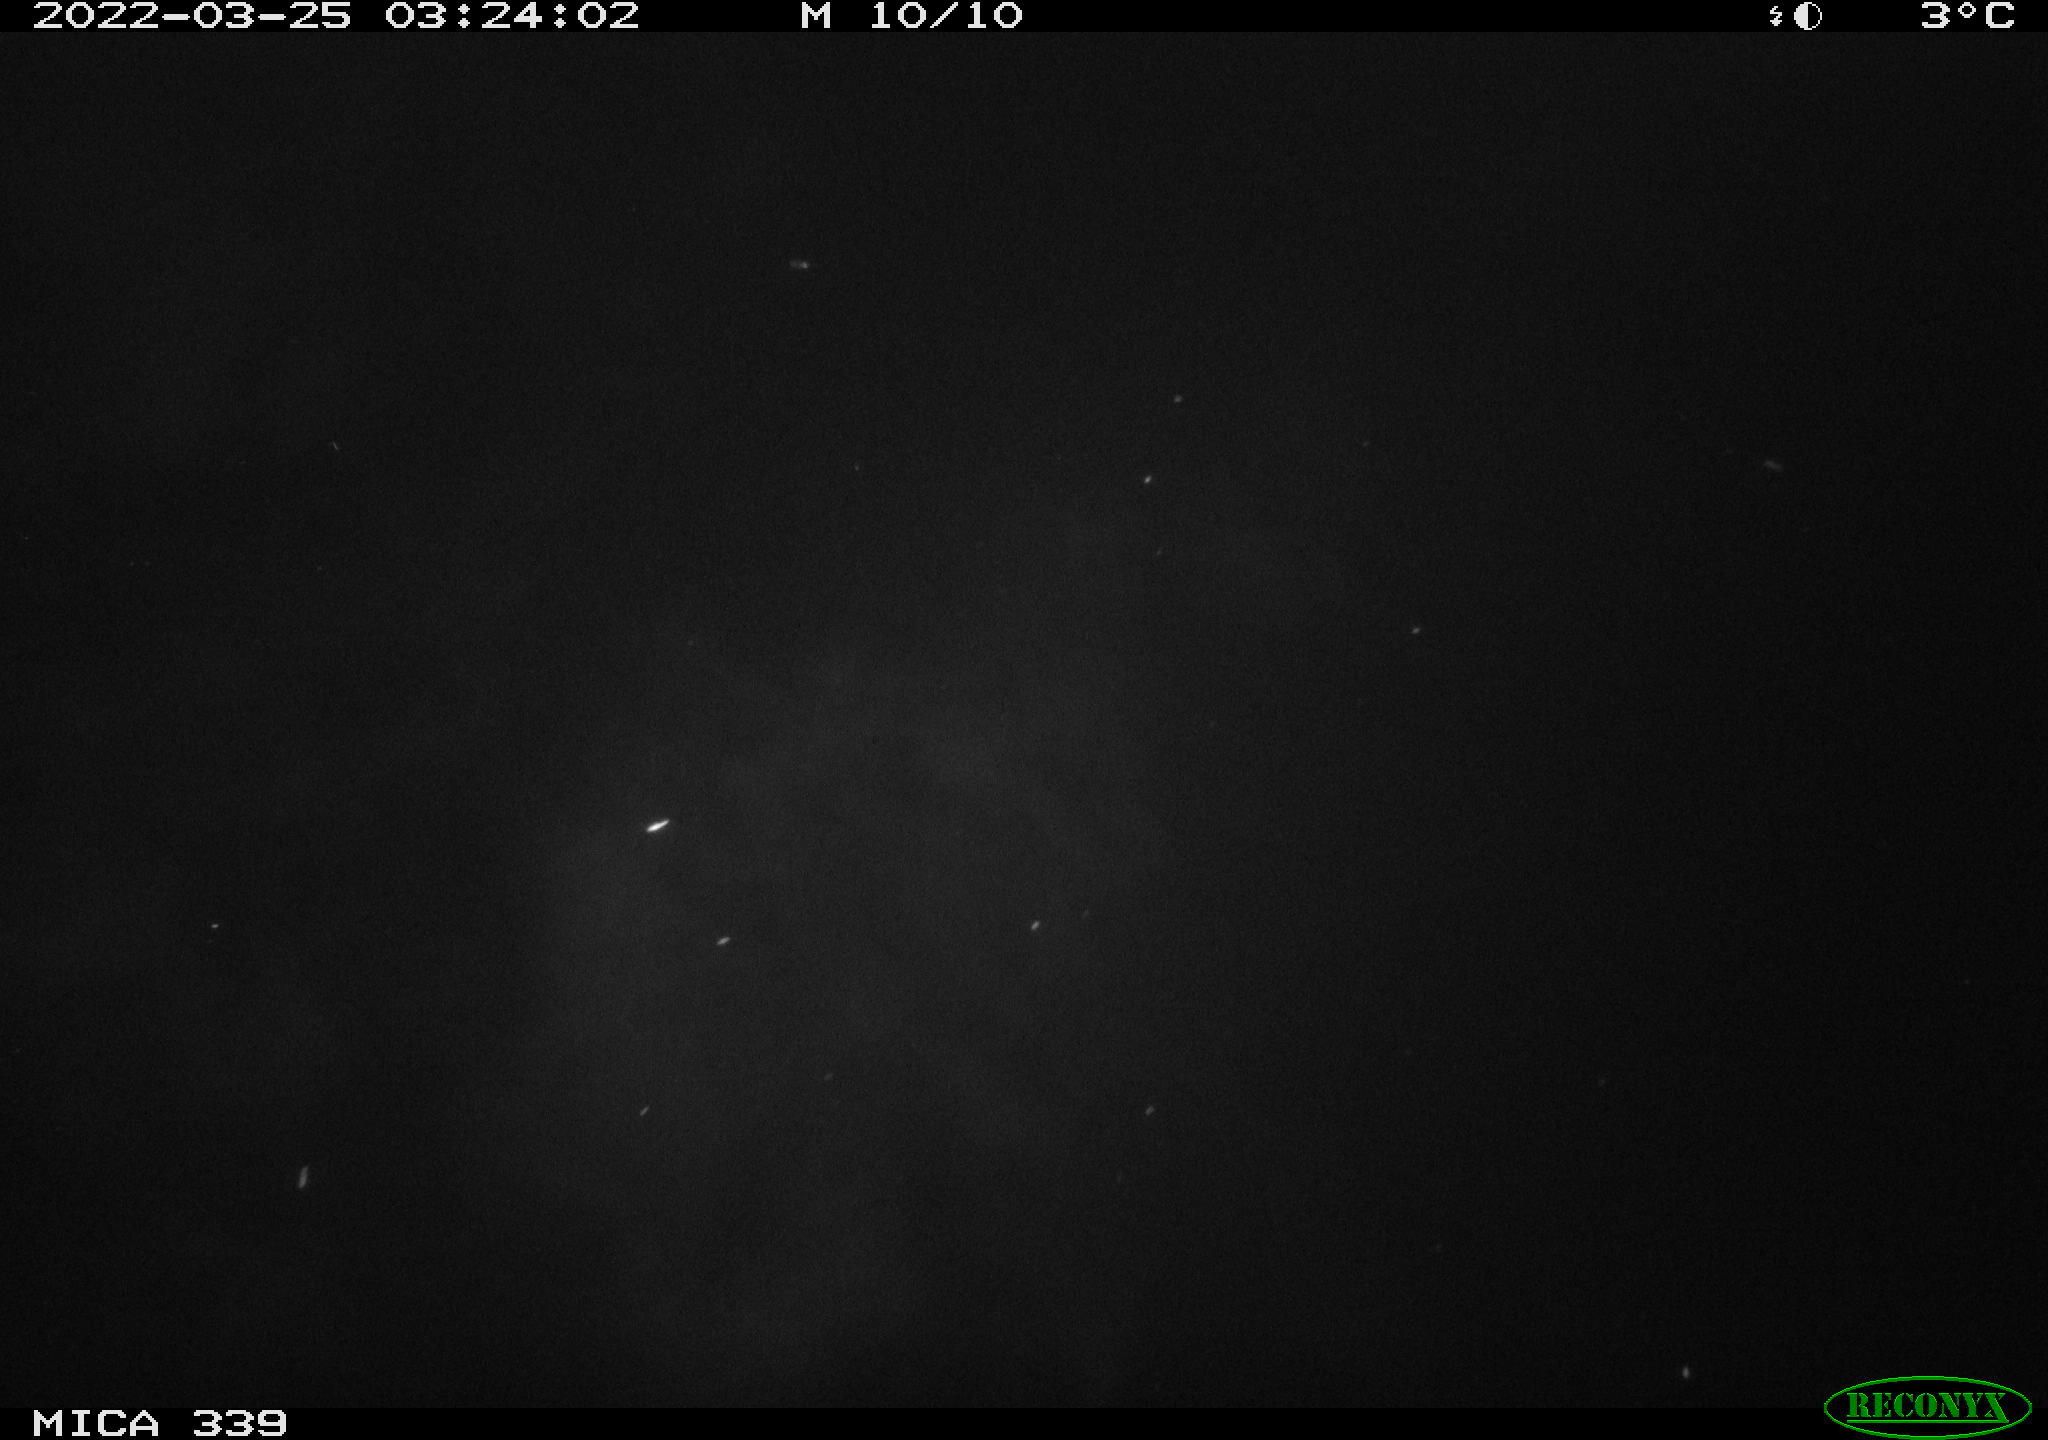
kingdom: Animalia
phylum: Chordata
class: Mammalia
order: Rodentia
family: Muridae
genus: Rattus
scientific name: Rattus norvegicus
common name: Brown rat
